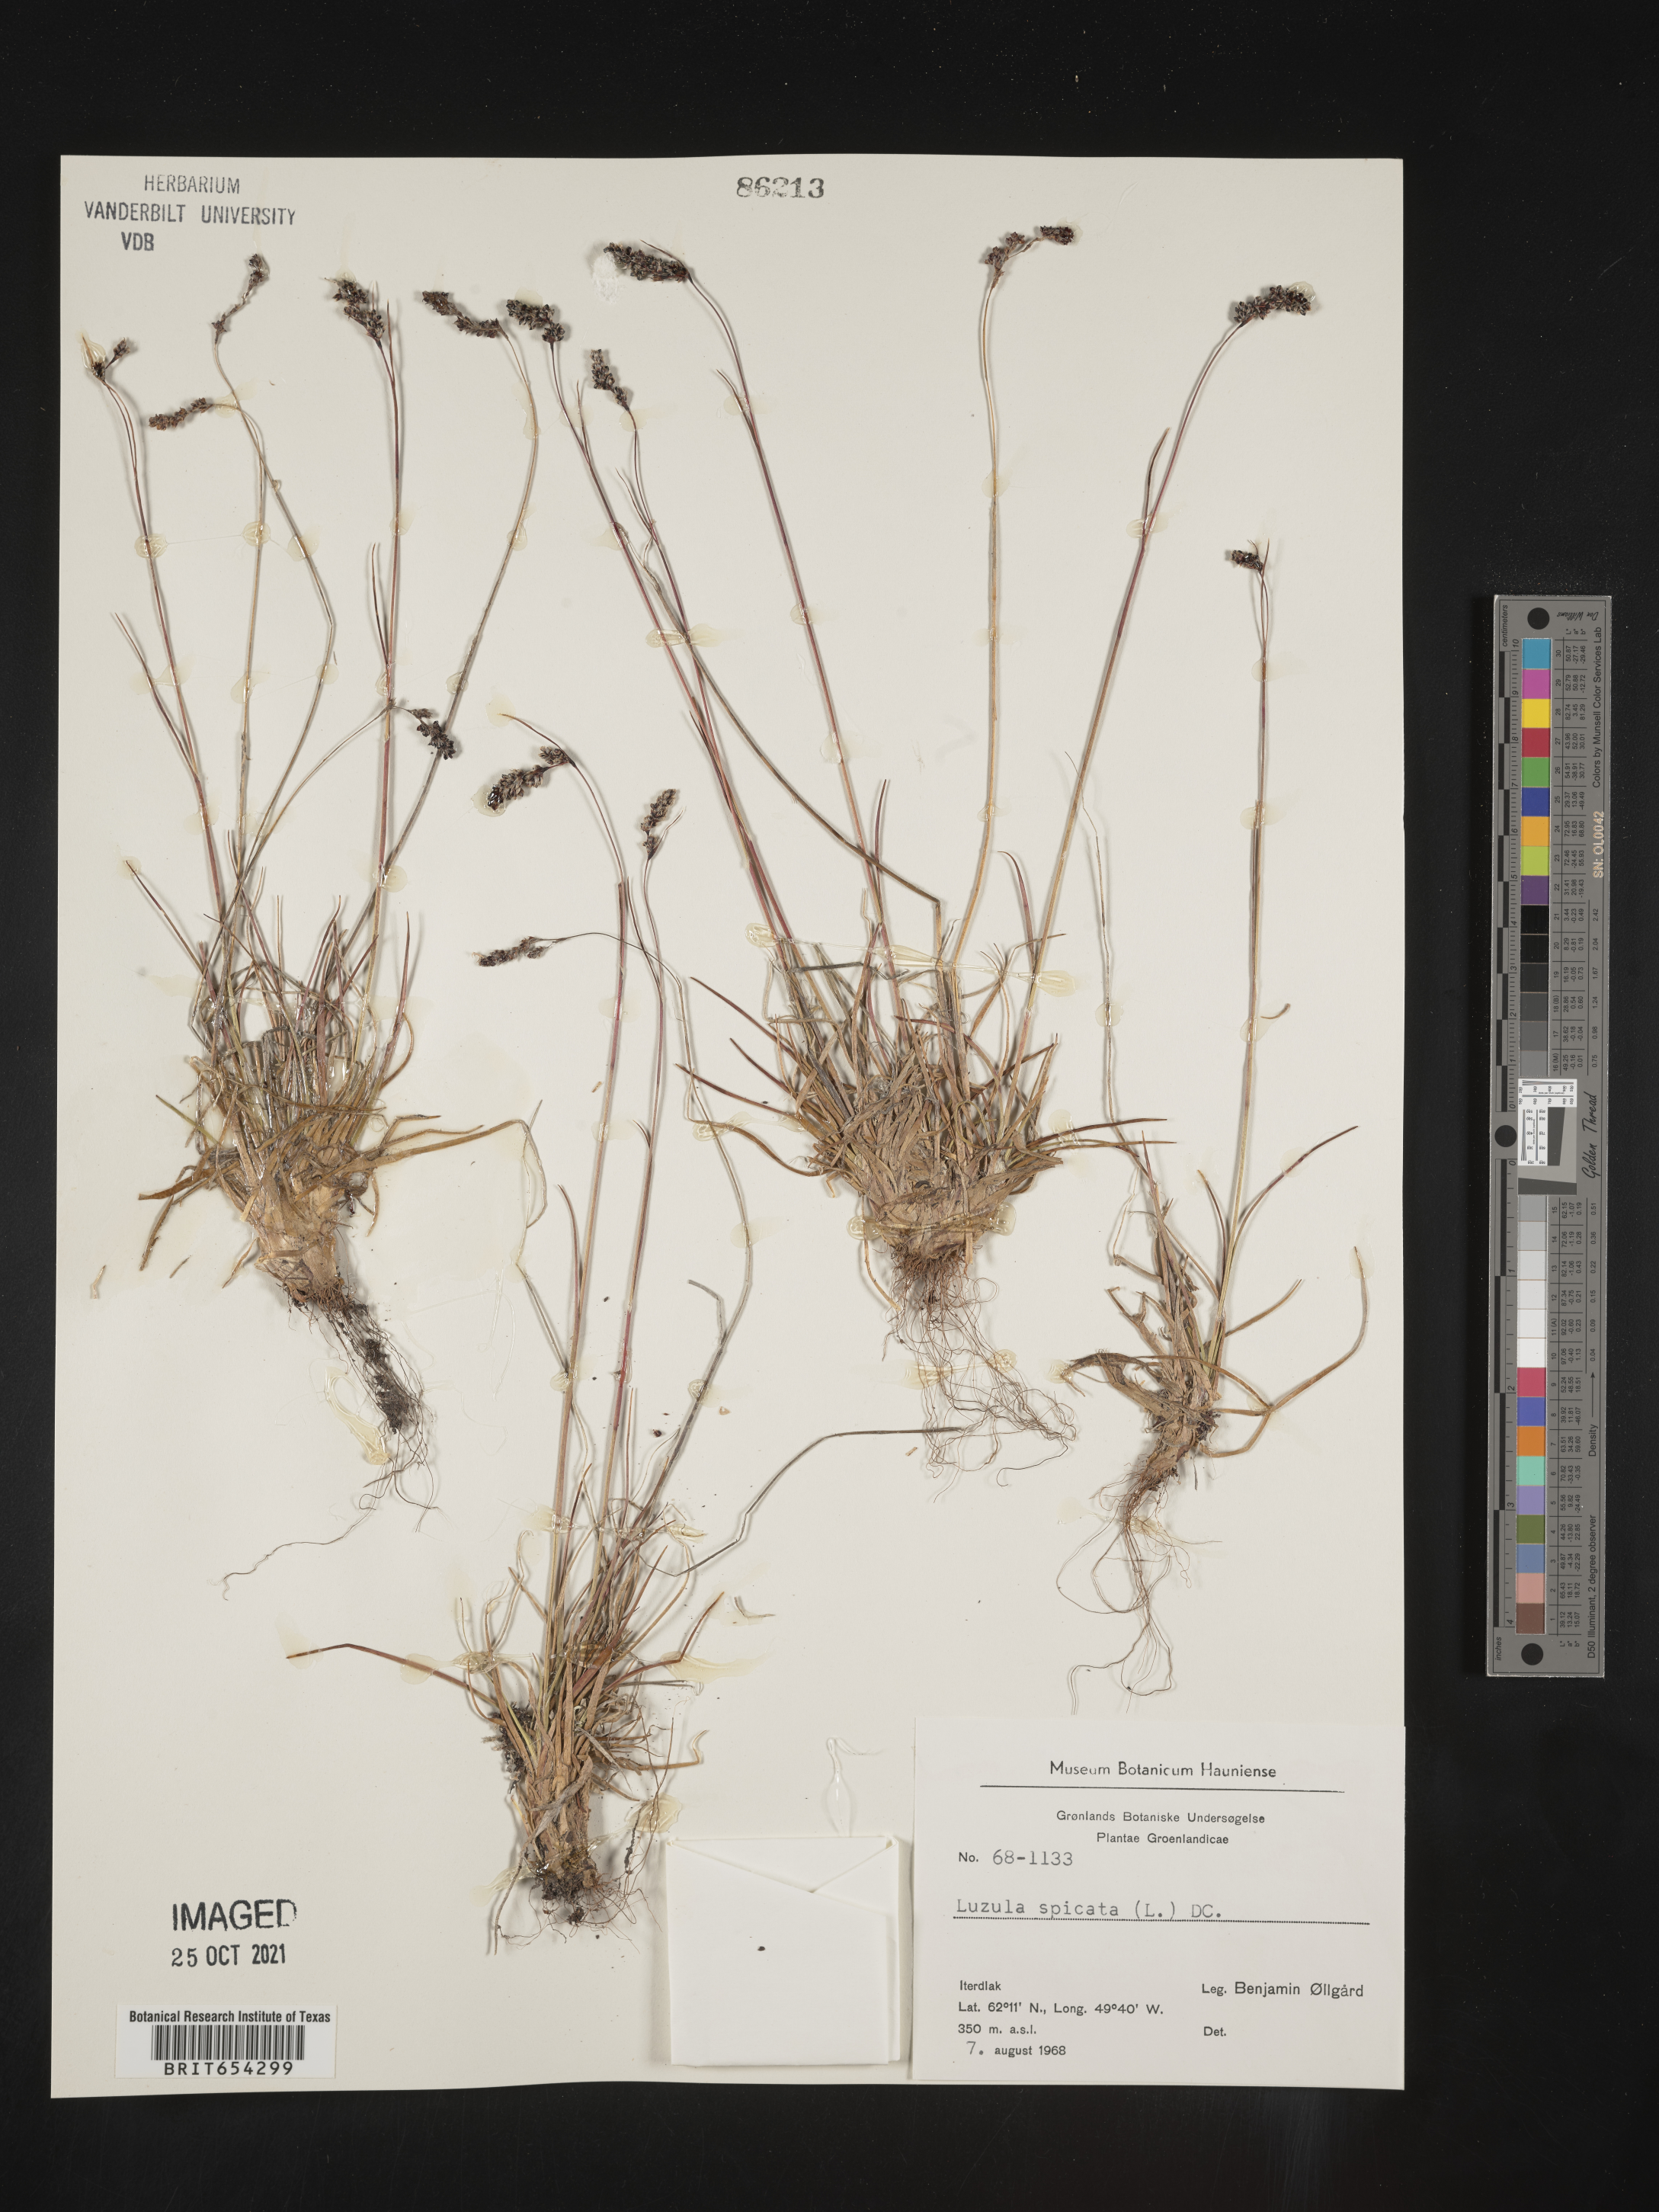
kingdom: Plantae
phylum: Tracheophyta
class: Liliopsida
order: Poales
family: Juncaceae
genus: Luzula
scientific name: Luzula
